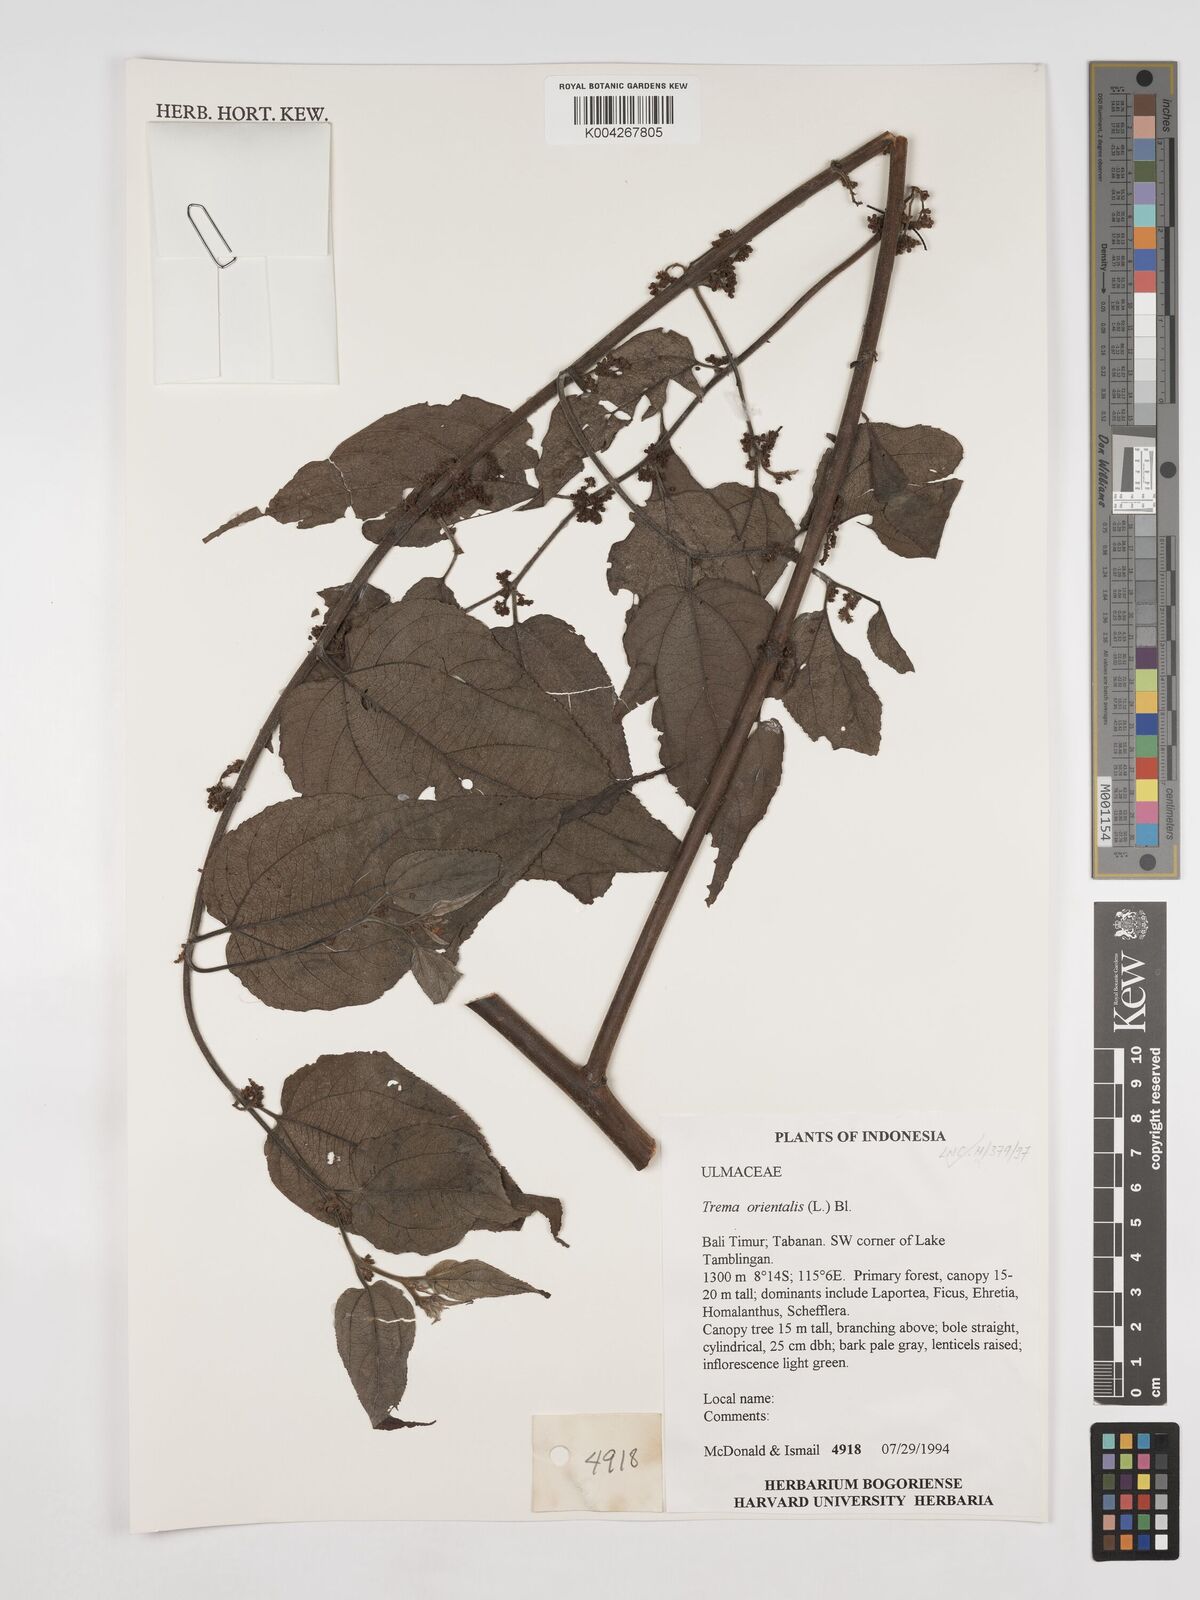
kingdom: Plantae
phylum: Tracheophyta
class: Magnoliopsida
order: Rosales
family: Cannabaceae
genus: Trema
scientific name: Trema orientale
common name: Indian charcoal tree
